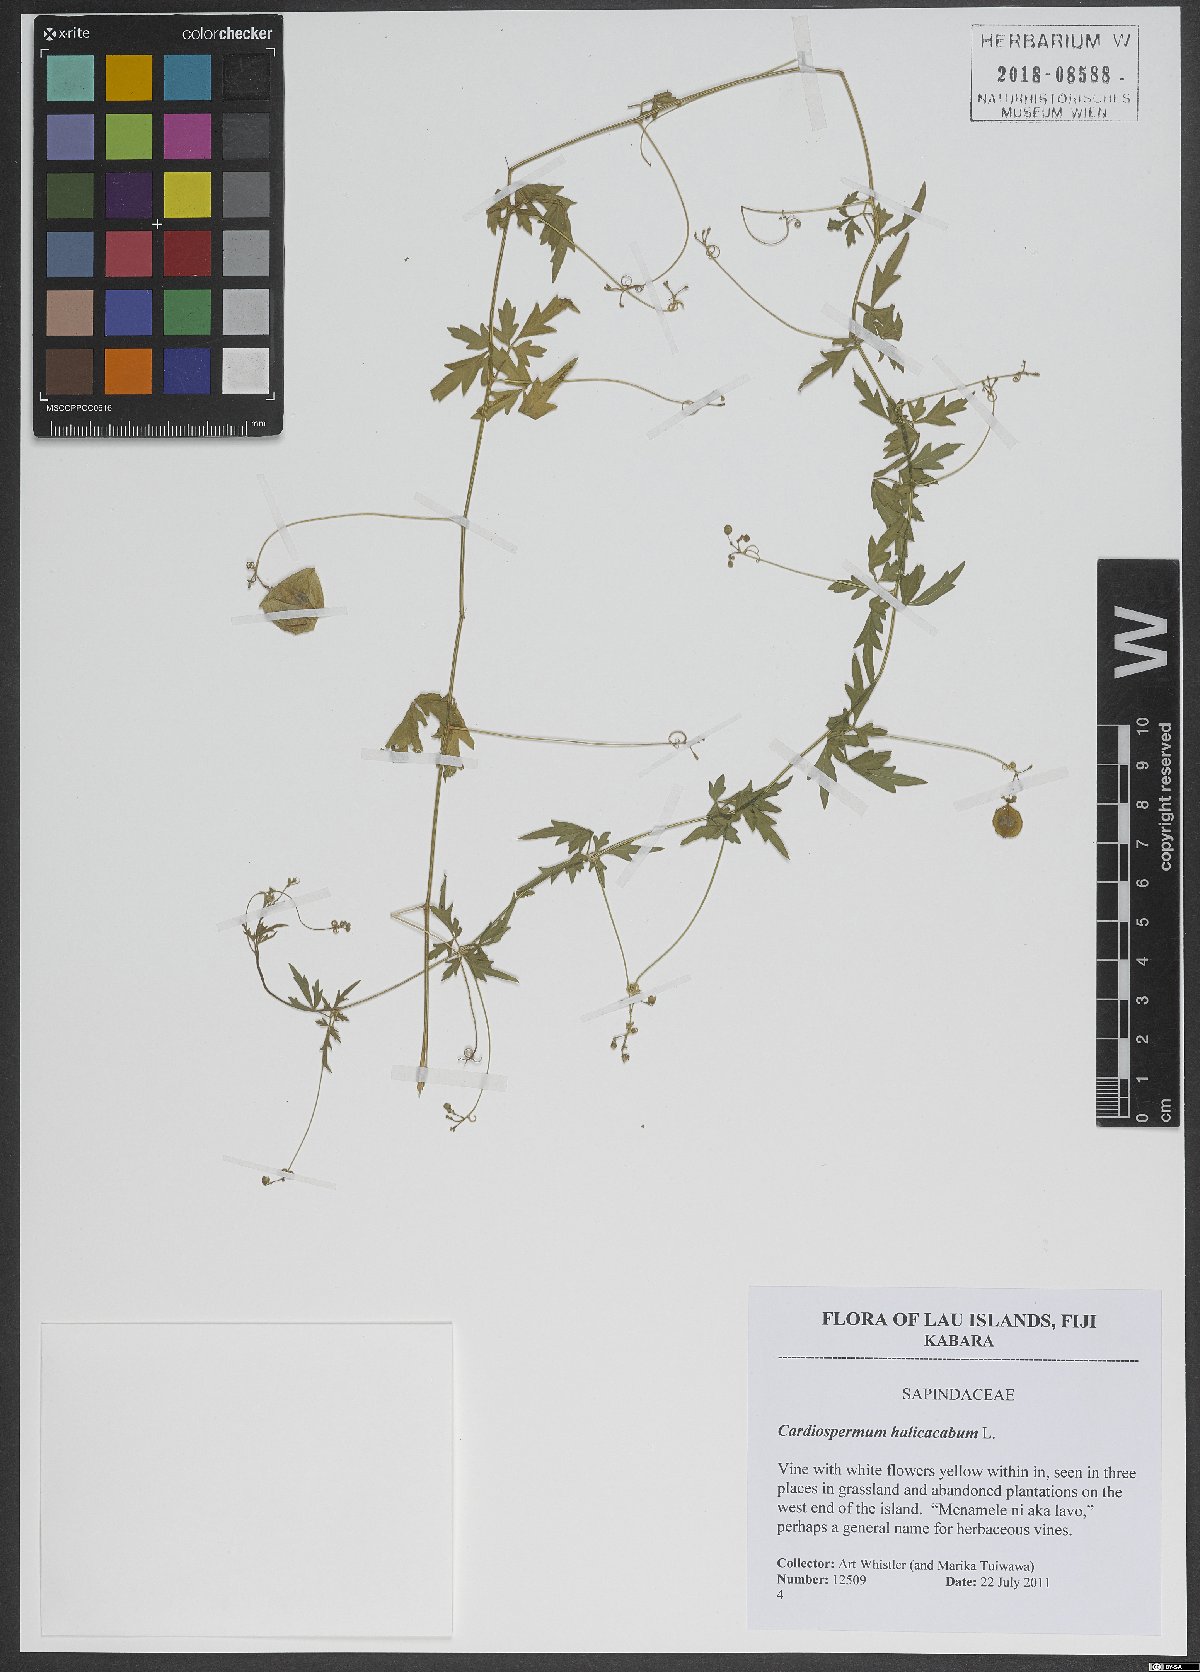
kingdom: Plantae
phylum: Tracheophyta
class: Magnoliopsida
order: Sapindales
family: Sapindaceae
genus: Cardiospermum
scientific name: Cardiospermum halicacabum
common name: Balloon vine
